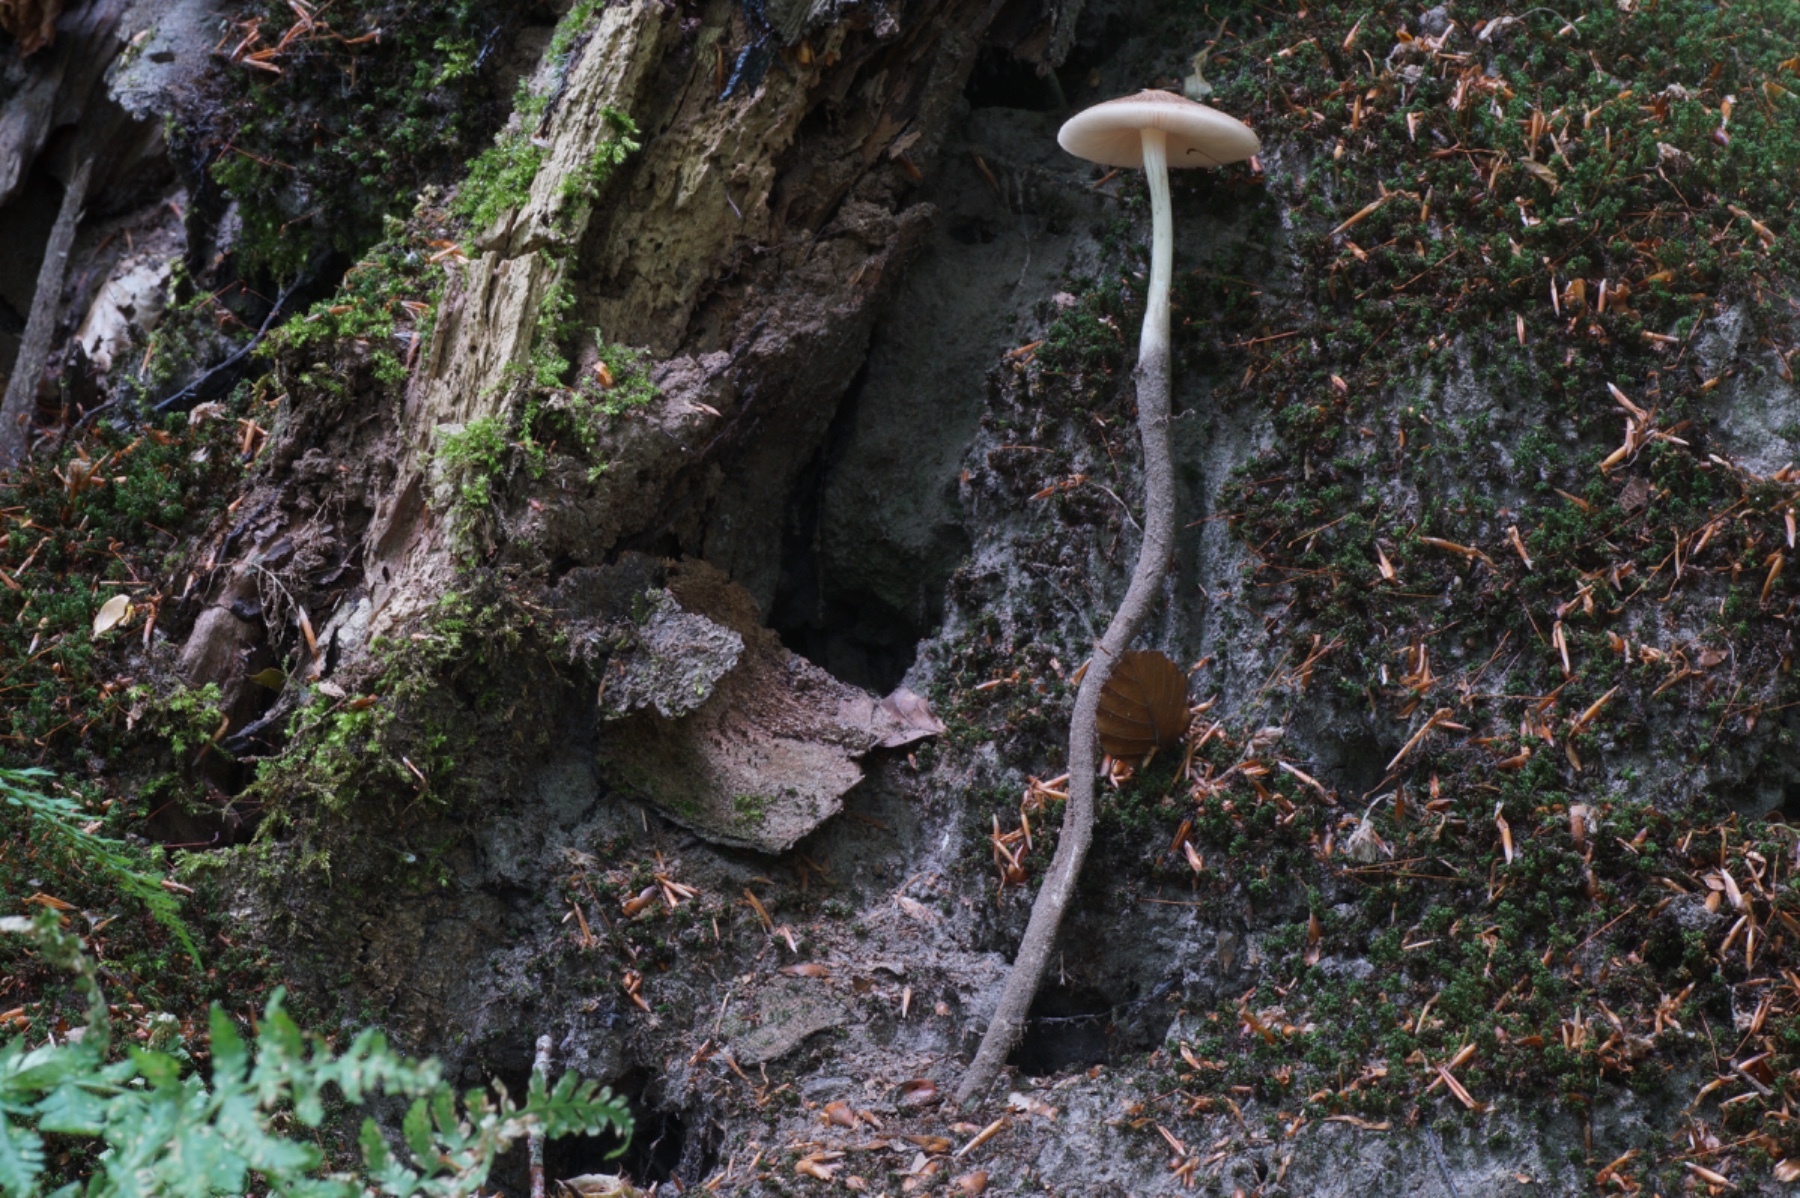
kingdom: Fungi
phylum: Basidiomycota
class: Agaricomycetes
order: Agaricales
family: Physalacriaceae
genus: Hymenopellis
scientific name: Hymenopellis radicata
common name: almindelig pælerodshat
